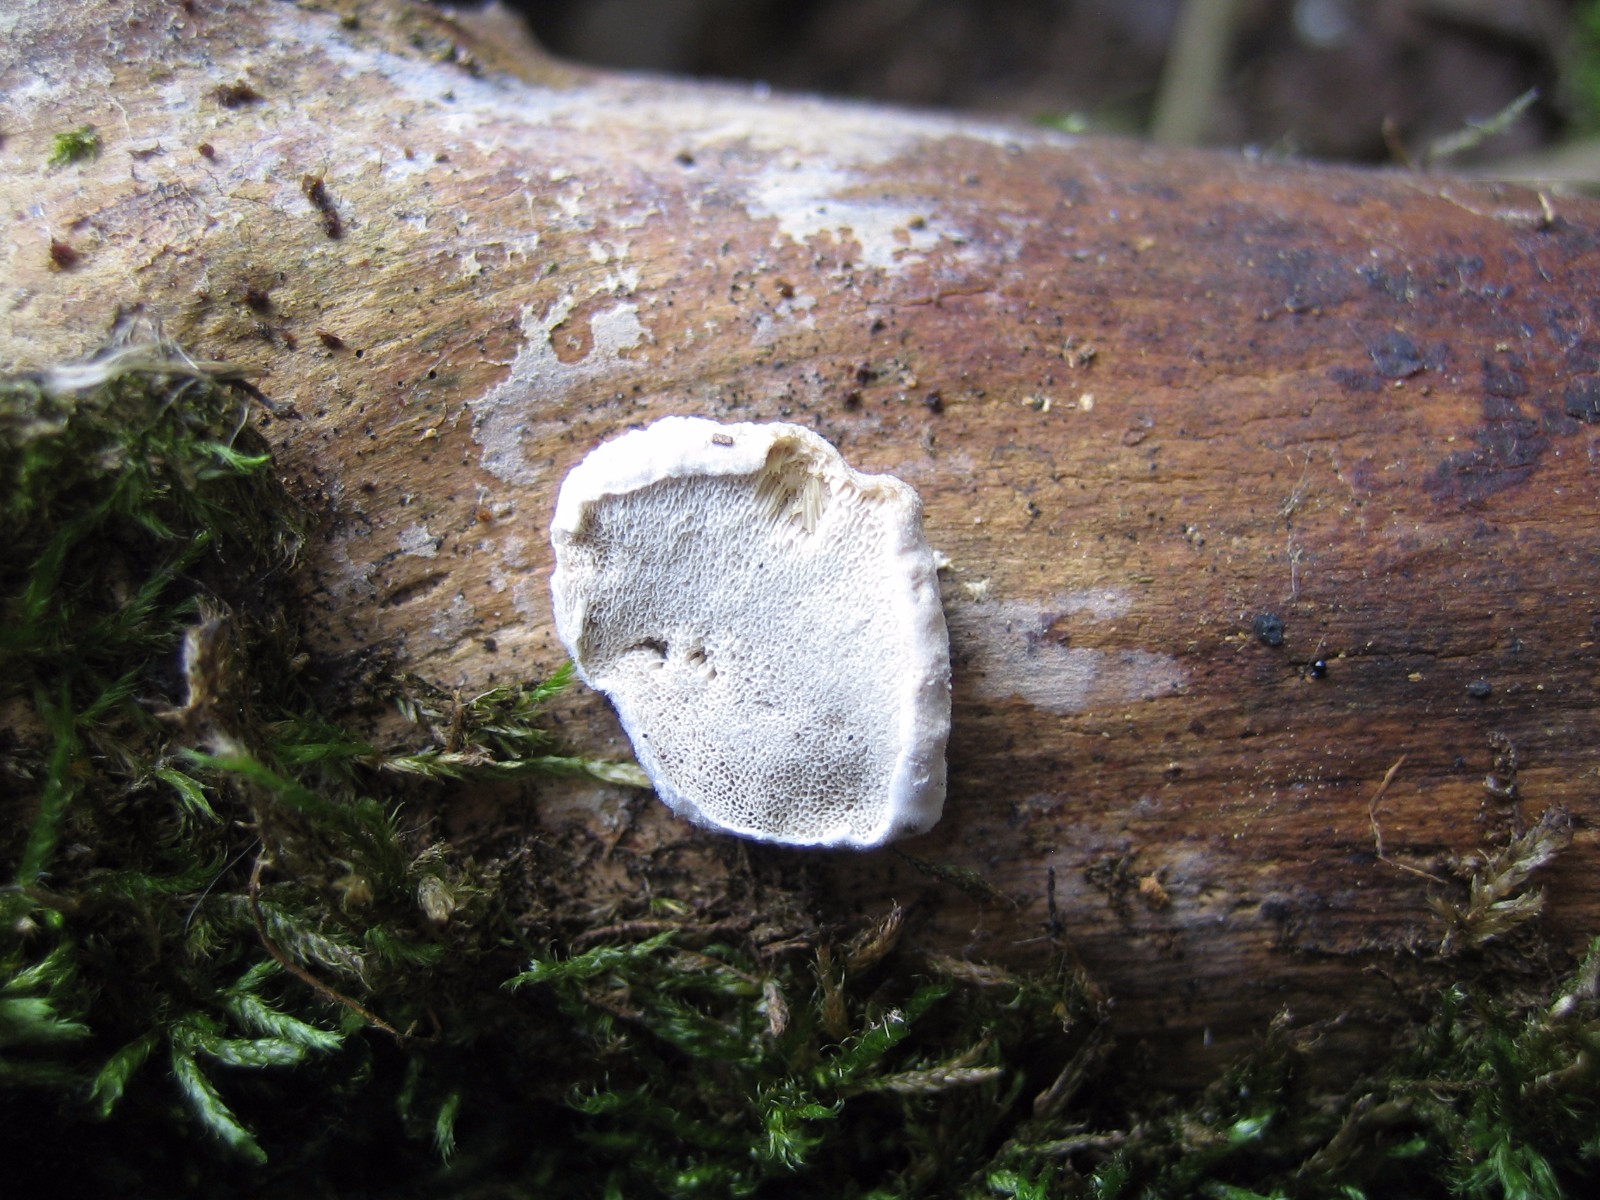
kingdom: Fungi
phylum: Basidiomycota
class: Agaricomycetes
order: Polyporales
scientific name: Polyporales
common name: poresvampordenen
